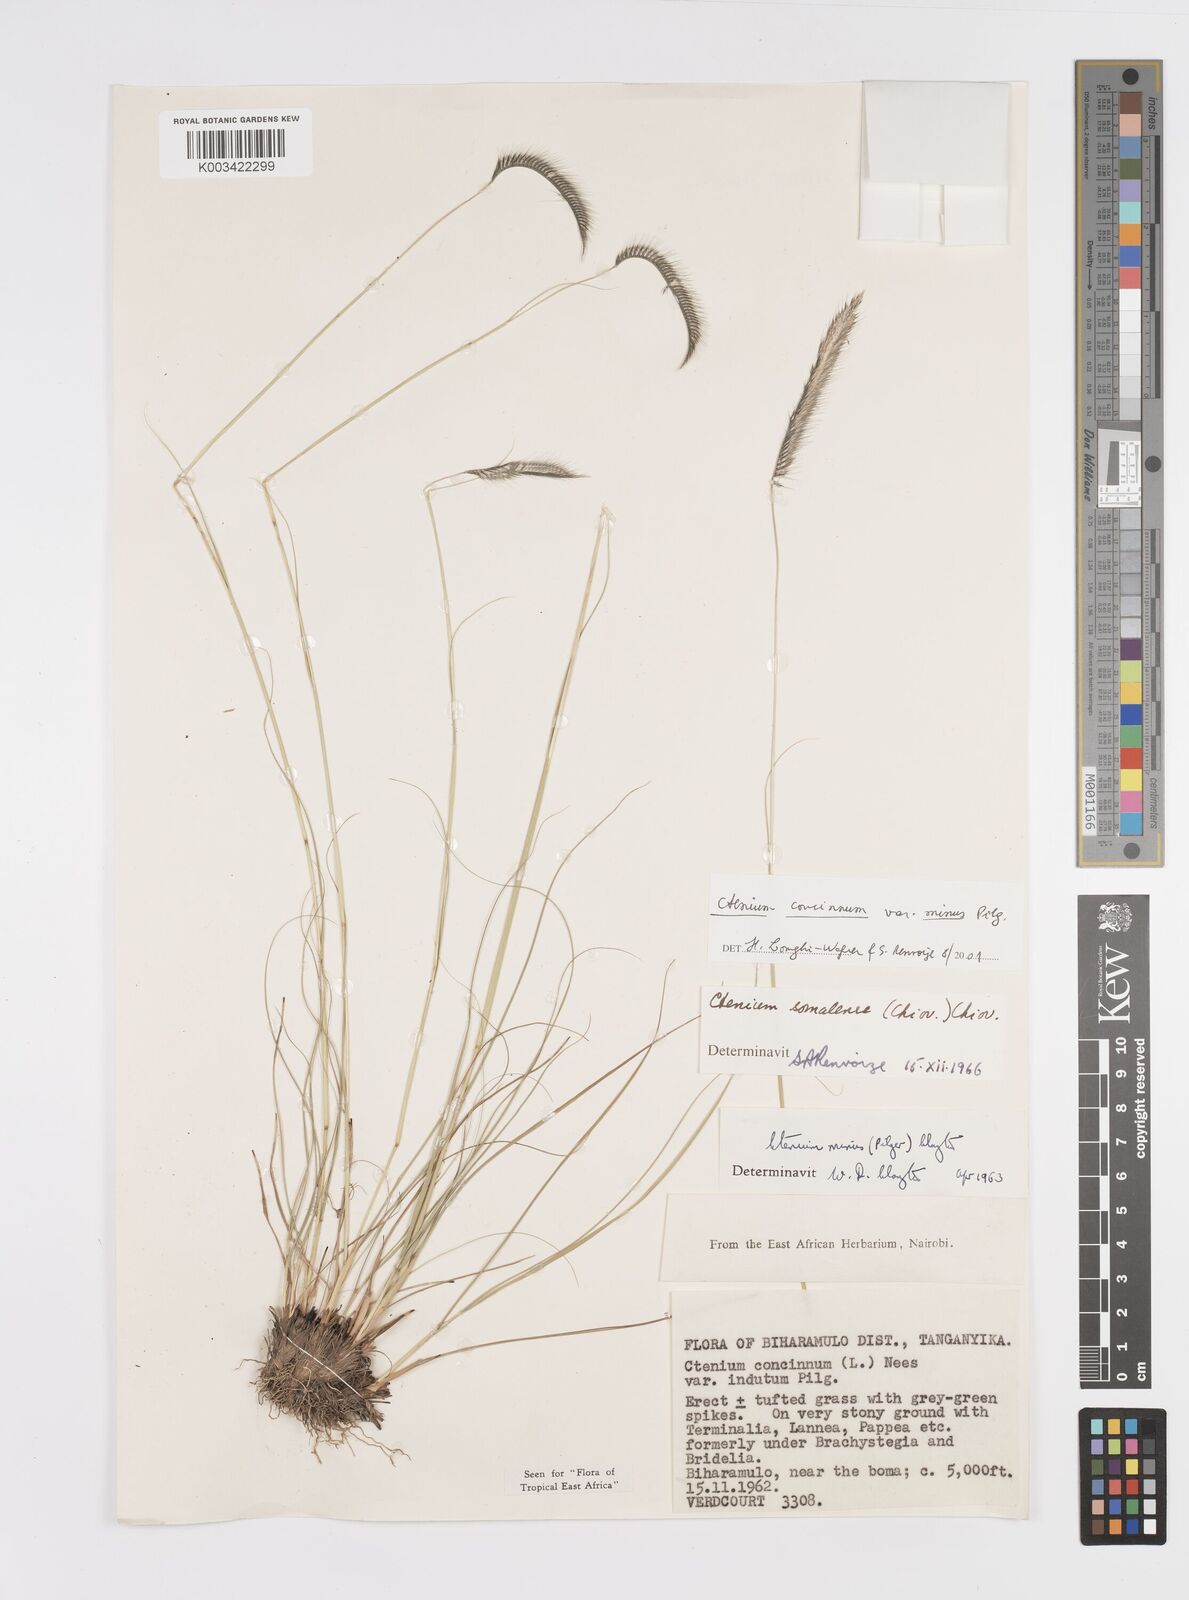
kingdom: Plantae
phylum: Tracheophyta
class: Liliopsida
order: Poales
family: Poaceae
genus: Ctenium
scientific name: Ctenium concinnum
